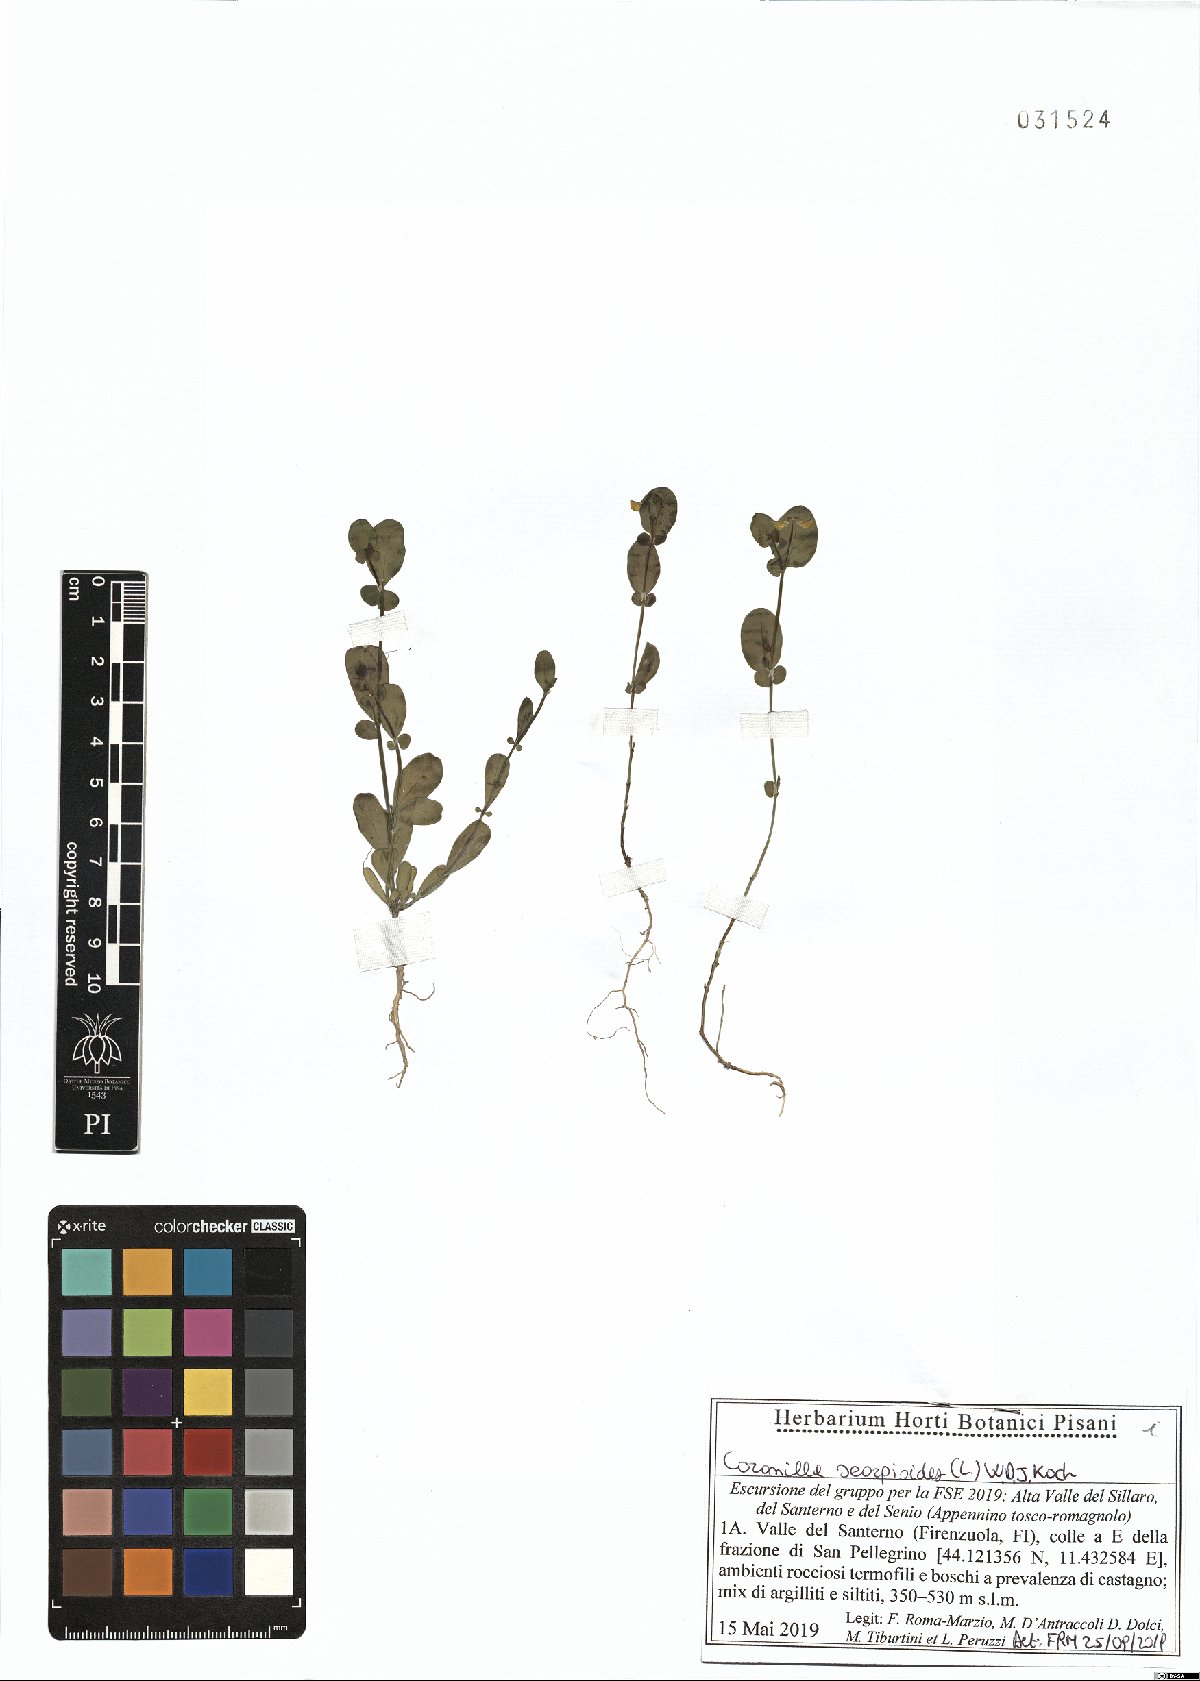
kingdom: Plantae
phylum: Tracheophyta
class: Magnoliopsida
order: Fabales
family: Fabaceae
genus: Coronilla
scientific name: Coronilla scorpioides
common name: Annual scorpion-vetch
